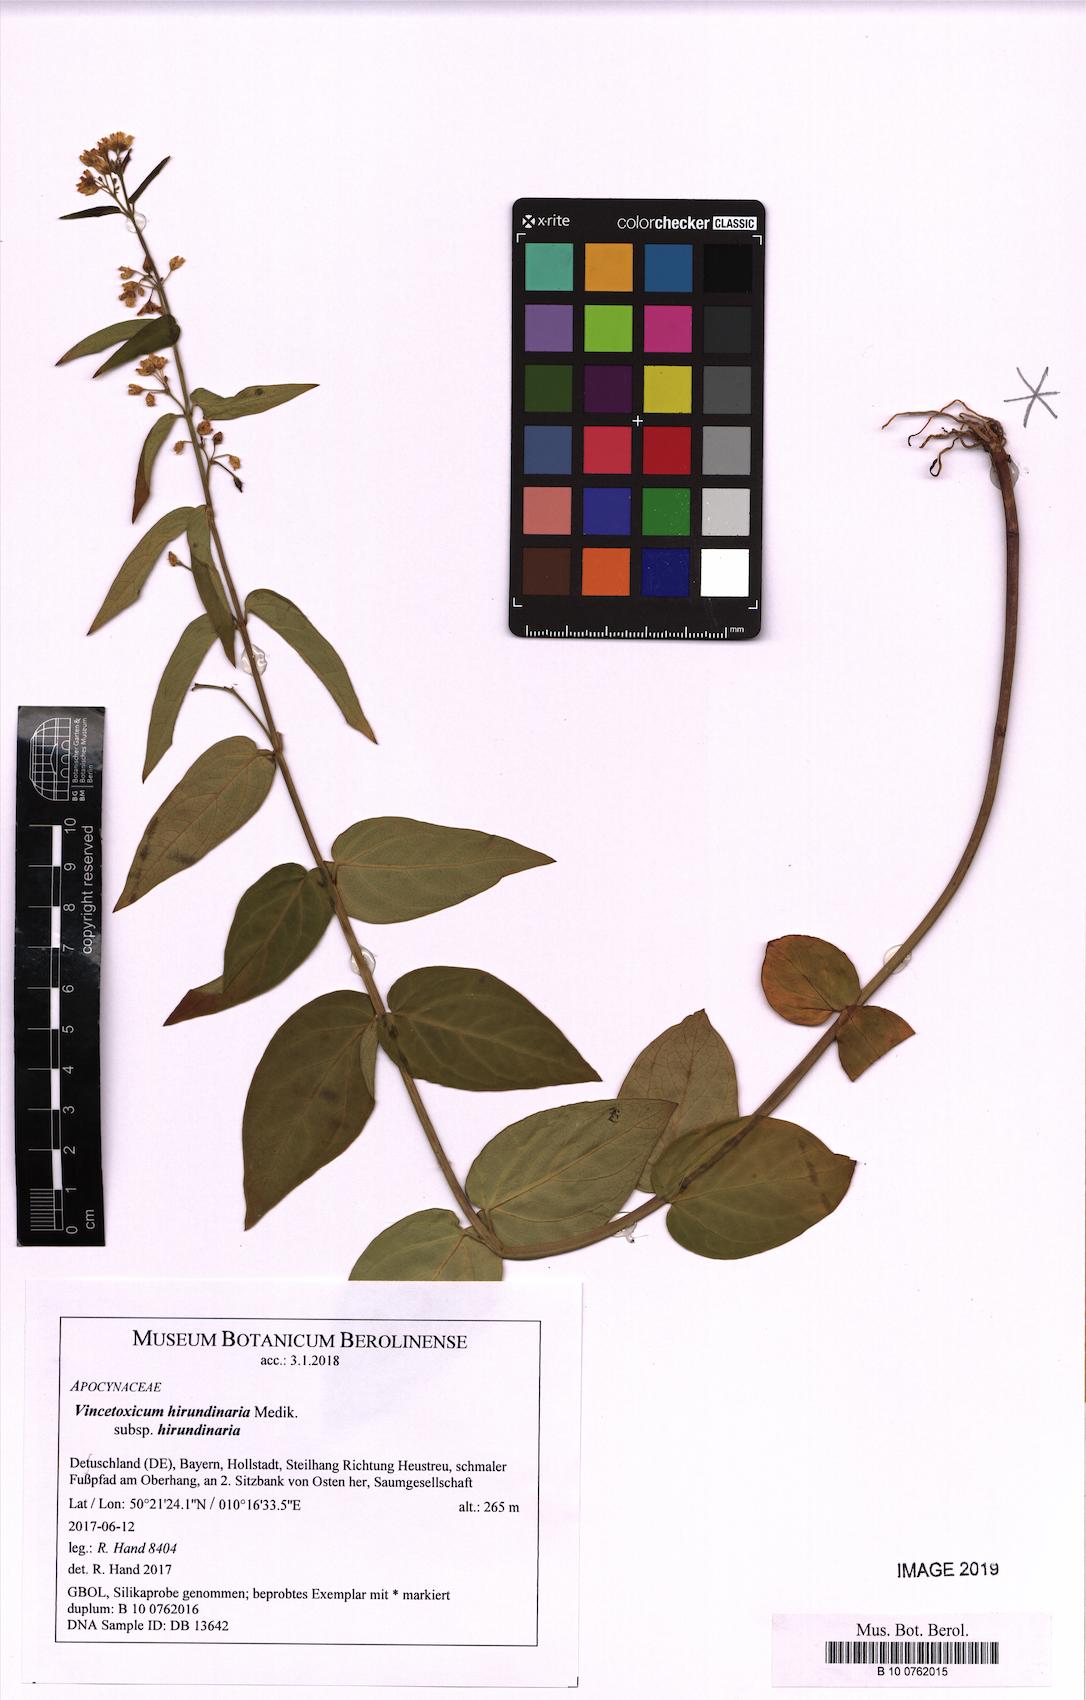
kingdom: Plantae
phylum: Tracheophyta
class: Magnoliopsida
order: Gentianales
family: Apocynaceae
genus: Vincetoxicum
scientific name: Vincetoxicum hirundinaria
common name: White swallowwort
